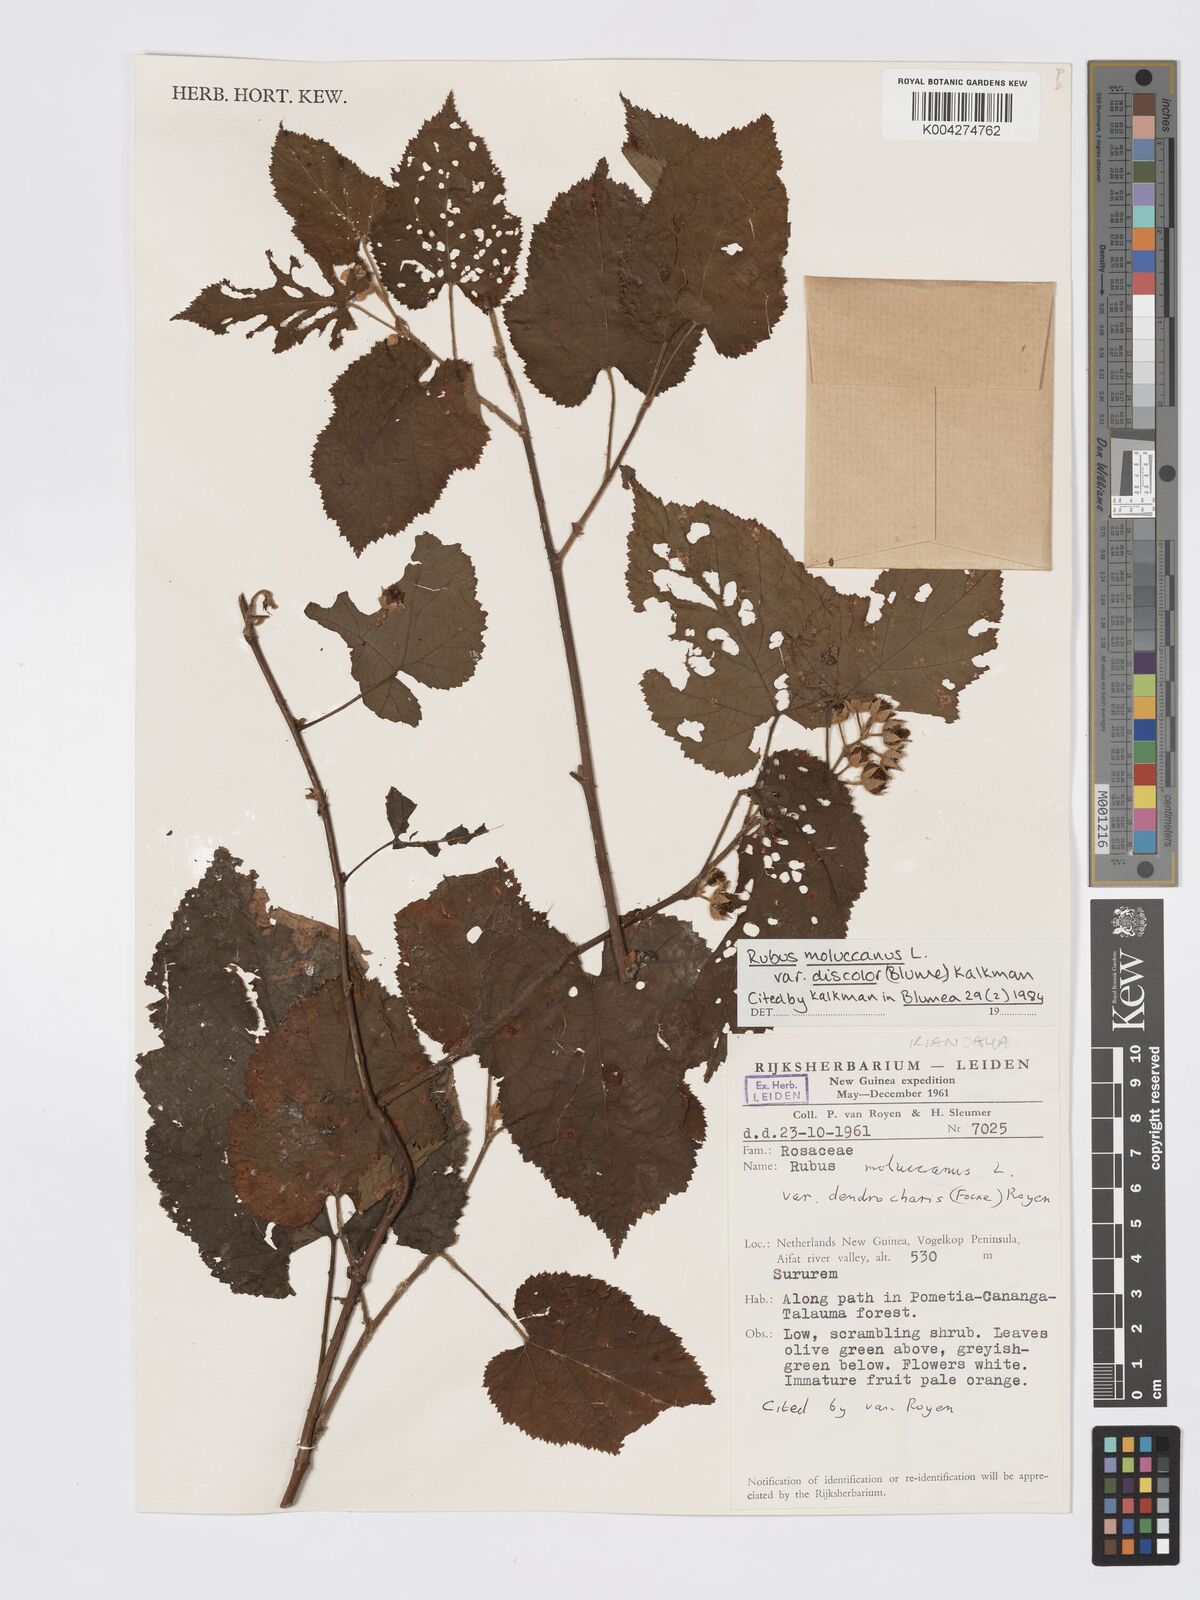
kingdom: Plantae
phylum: Tracheophyta
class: Magnoliopsida
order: Rosales
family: Rosaceae
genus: Rubus
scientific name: Rubus moluccanus
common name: Wild raspberry
